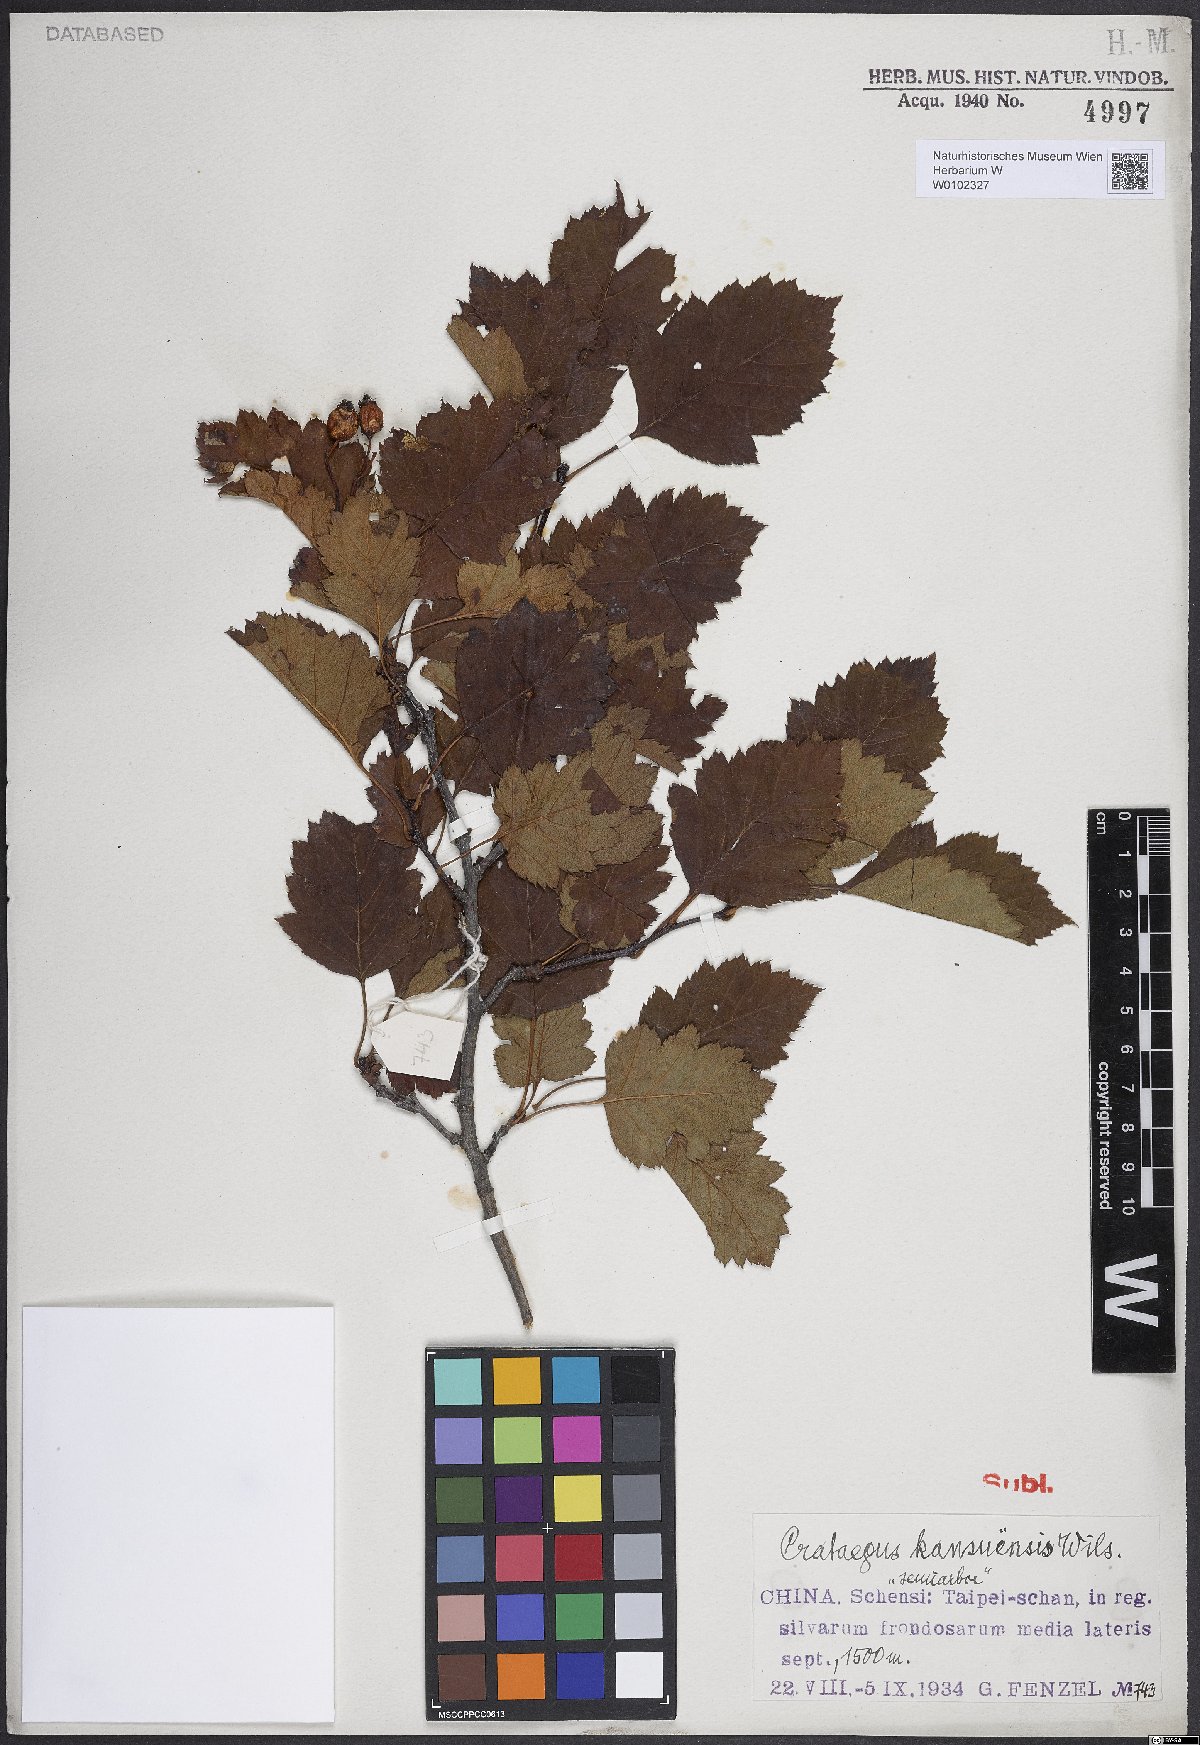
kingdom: Plantae
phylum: Tracheophyta
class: Magnoliopsida
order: Rosales
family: Rosaceae
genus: Crataegus
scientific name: Crataegus kansuensis
